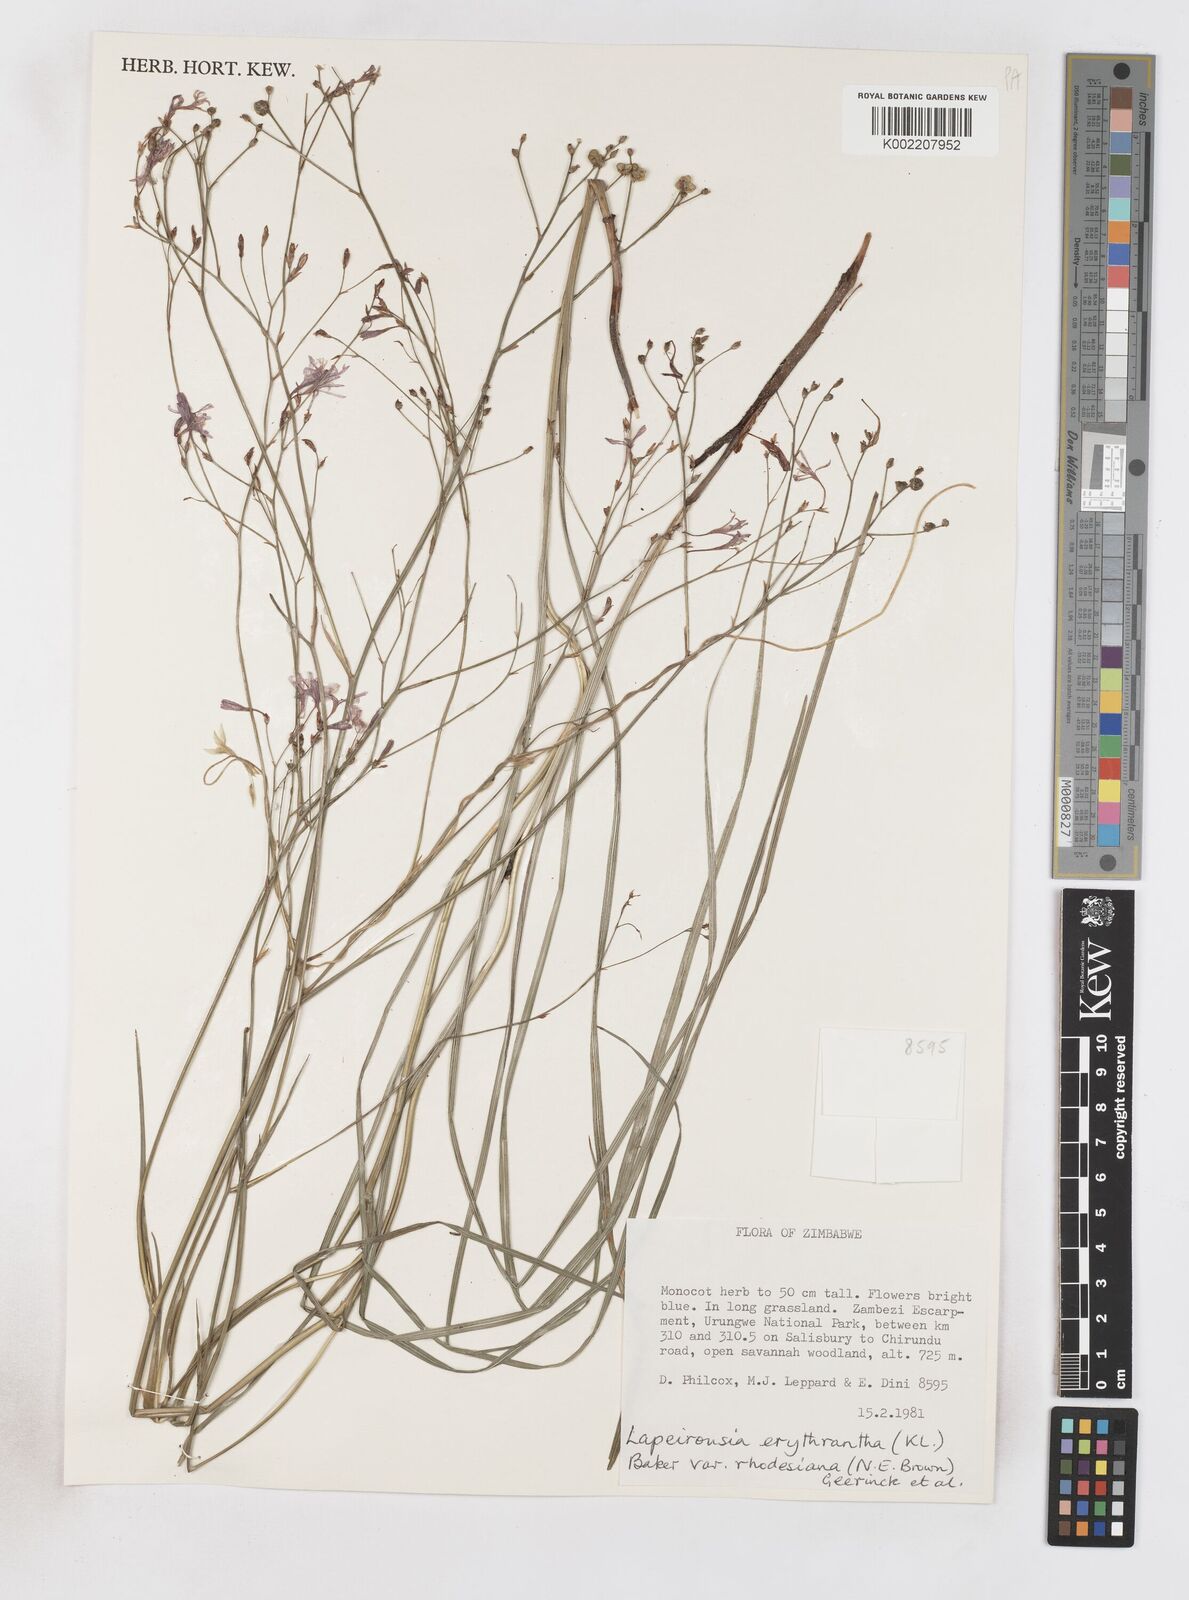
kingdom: Plantae
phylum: Tracheophyta
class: Liliopsida
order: Asparagales
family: Iridaceae
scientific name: Iridaceae
